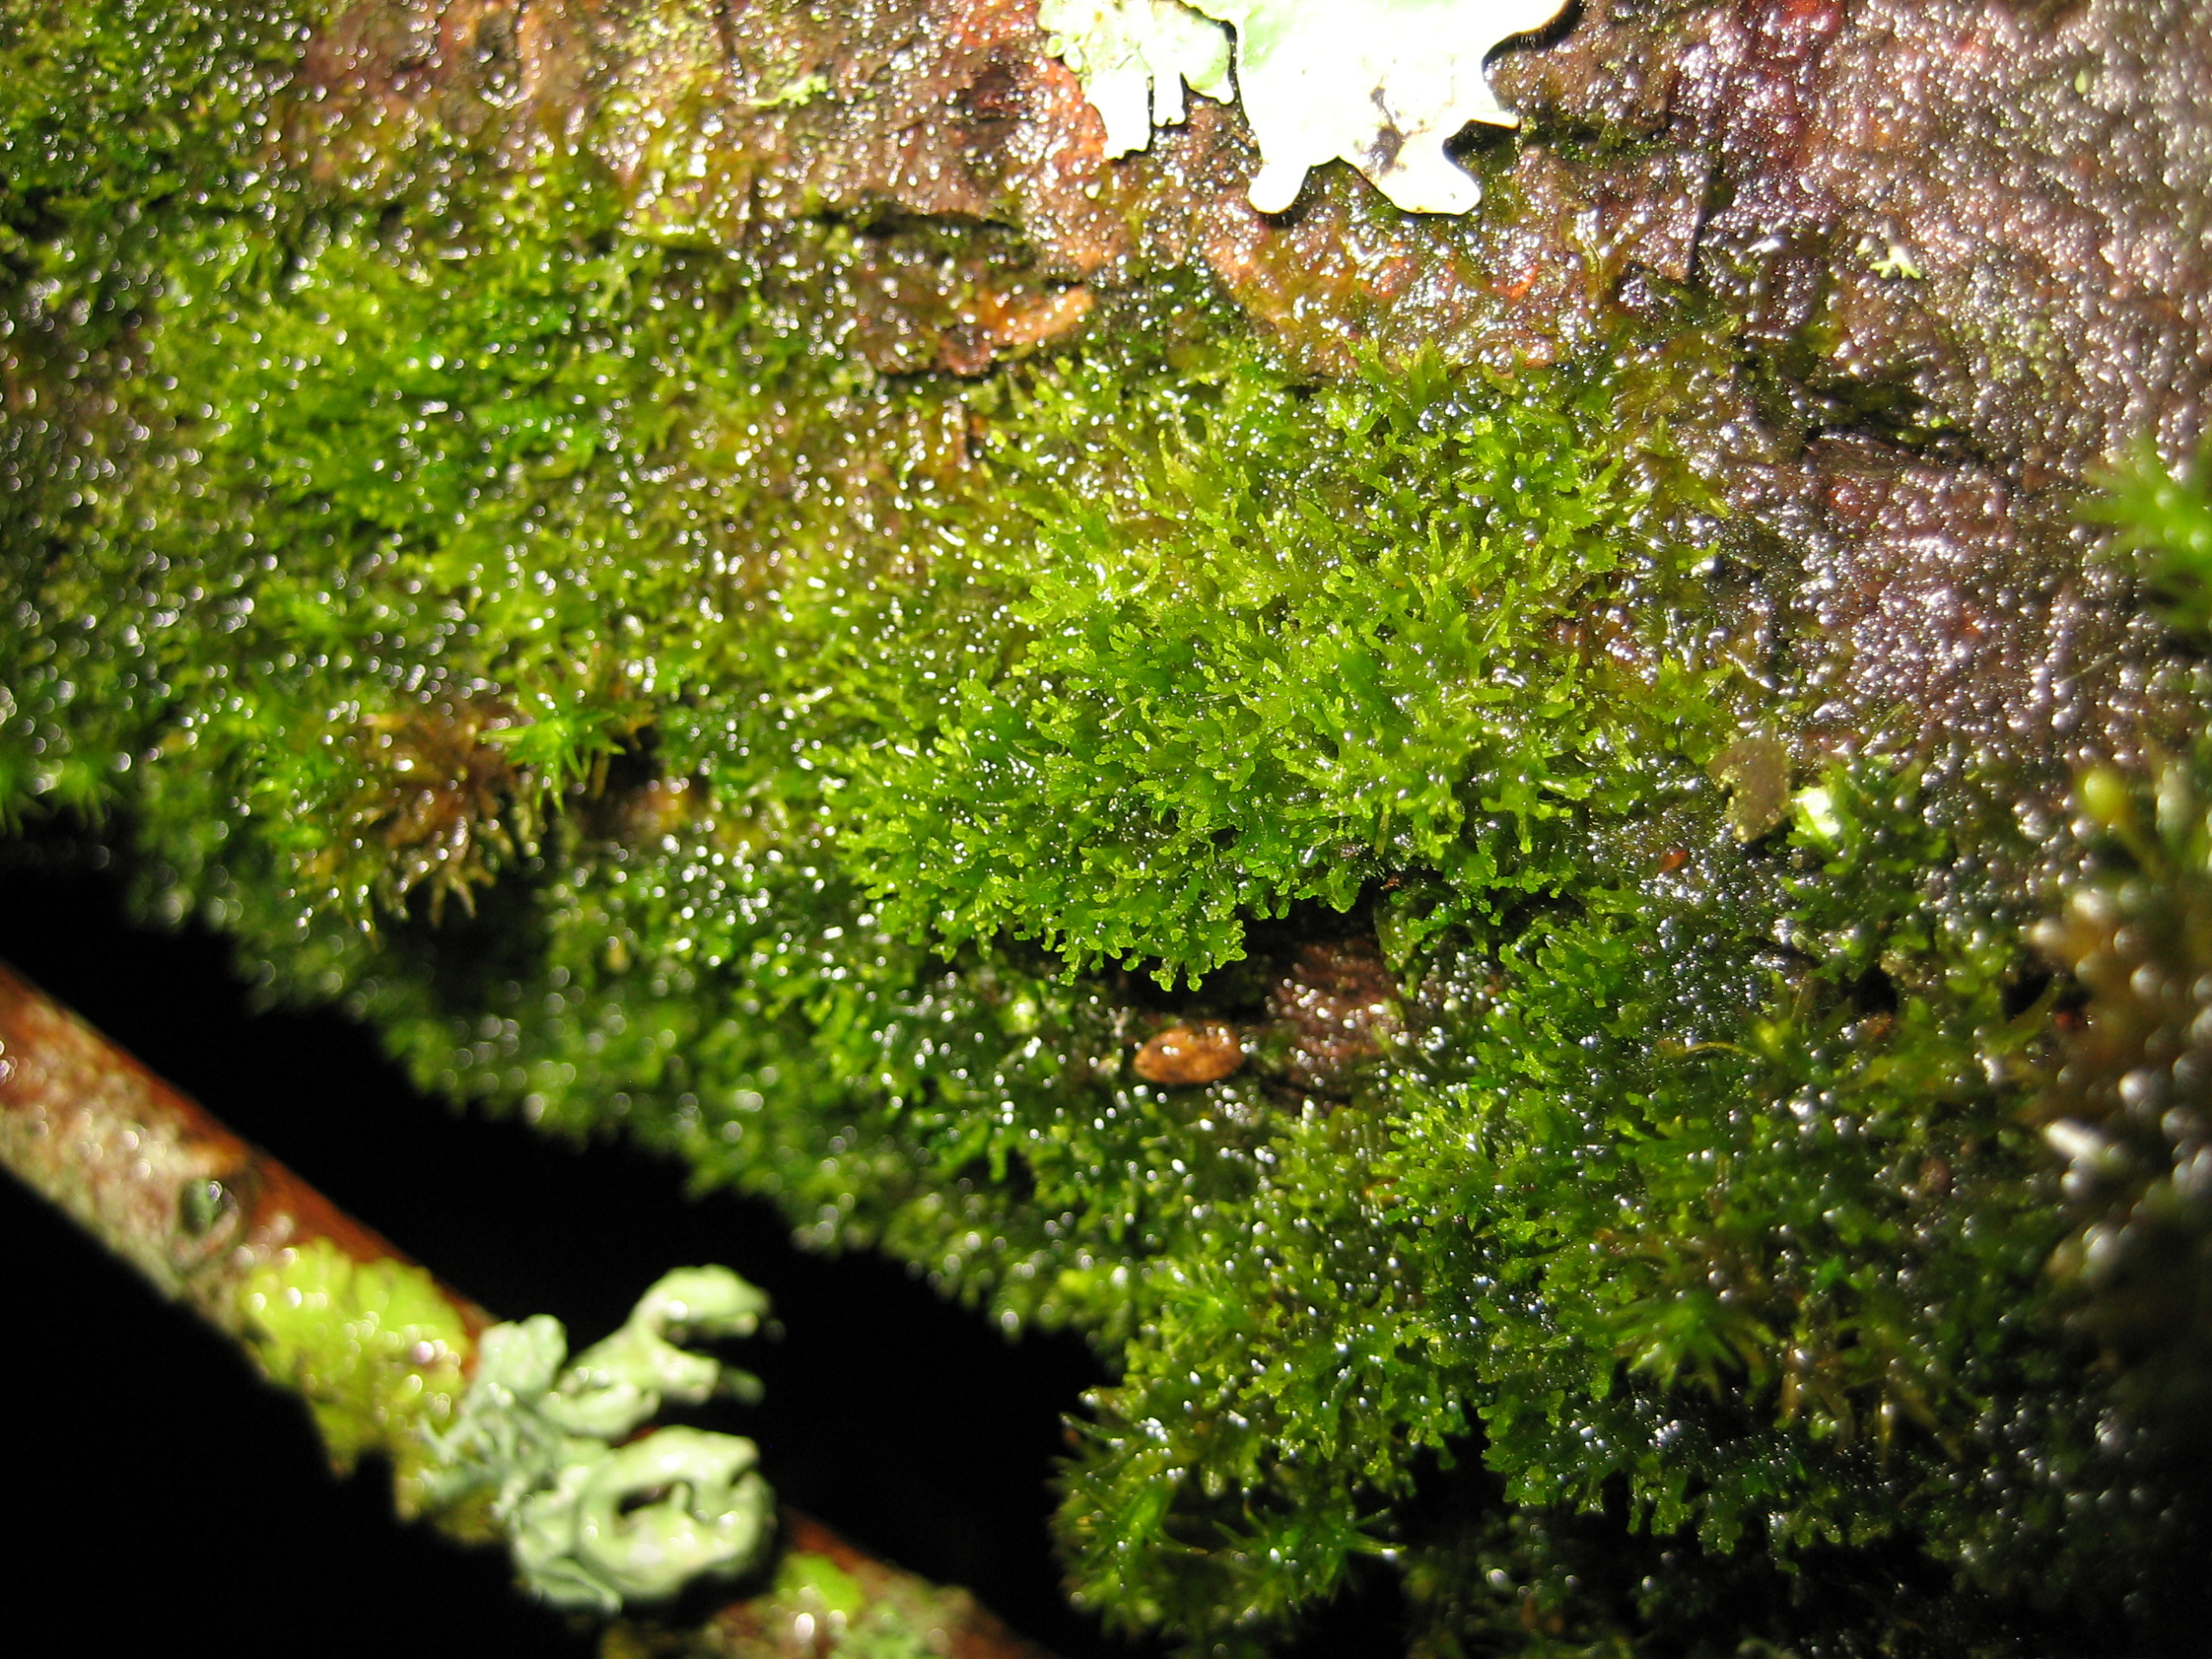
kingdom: Plantae
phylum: Marchantiophyta
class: Jungermanniopsida
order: Metzgeriales
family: Aneuraceae
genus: Riccardia
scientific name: Riccardia palmata
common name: Blågrøn gaffelløv
